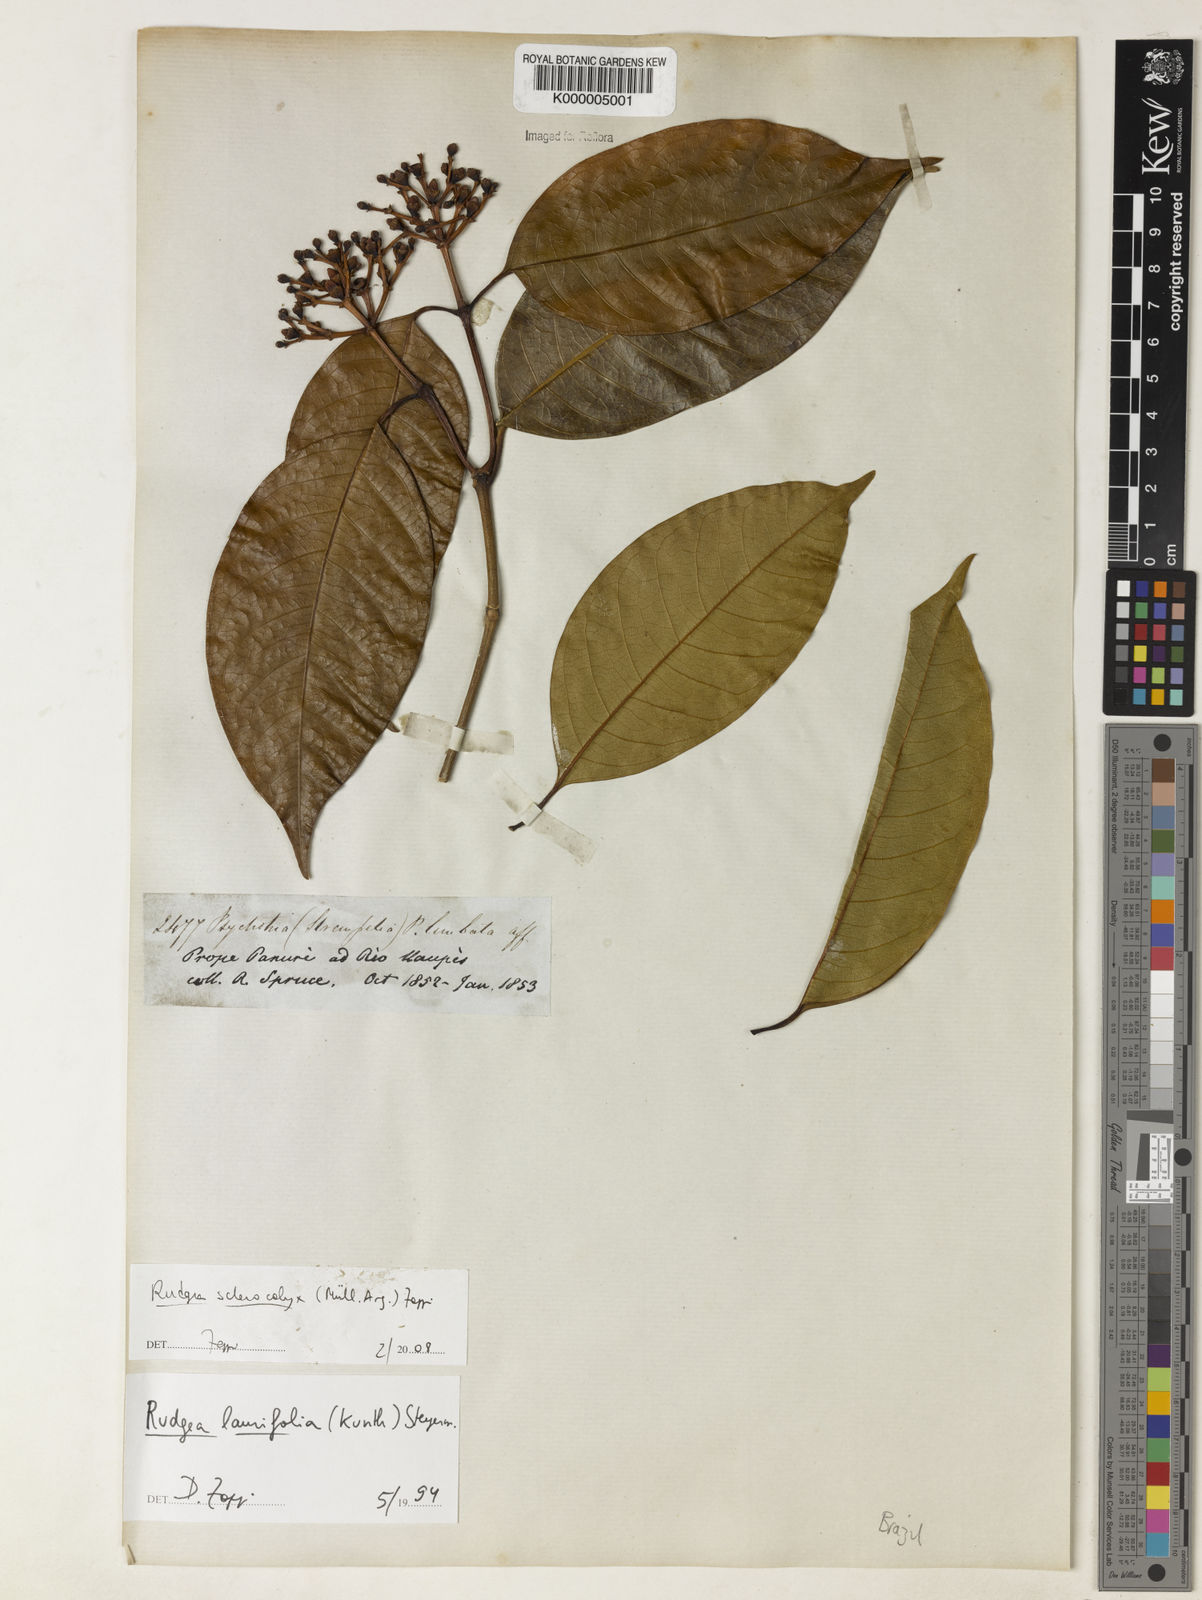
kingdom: Plantae
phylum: Tracheophyta
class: Magnoliopsida
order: Gentianales
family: Rubiaceae
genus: Rudgea
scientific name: Rudgea sclerocalyx
